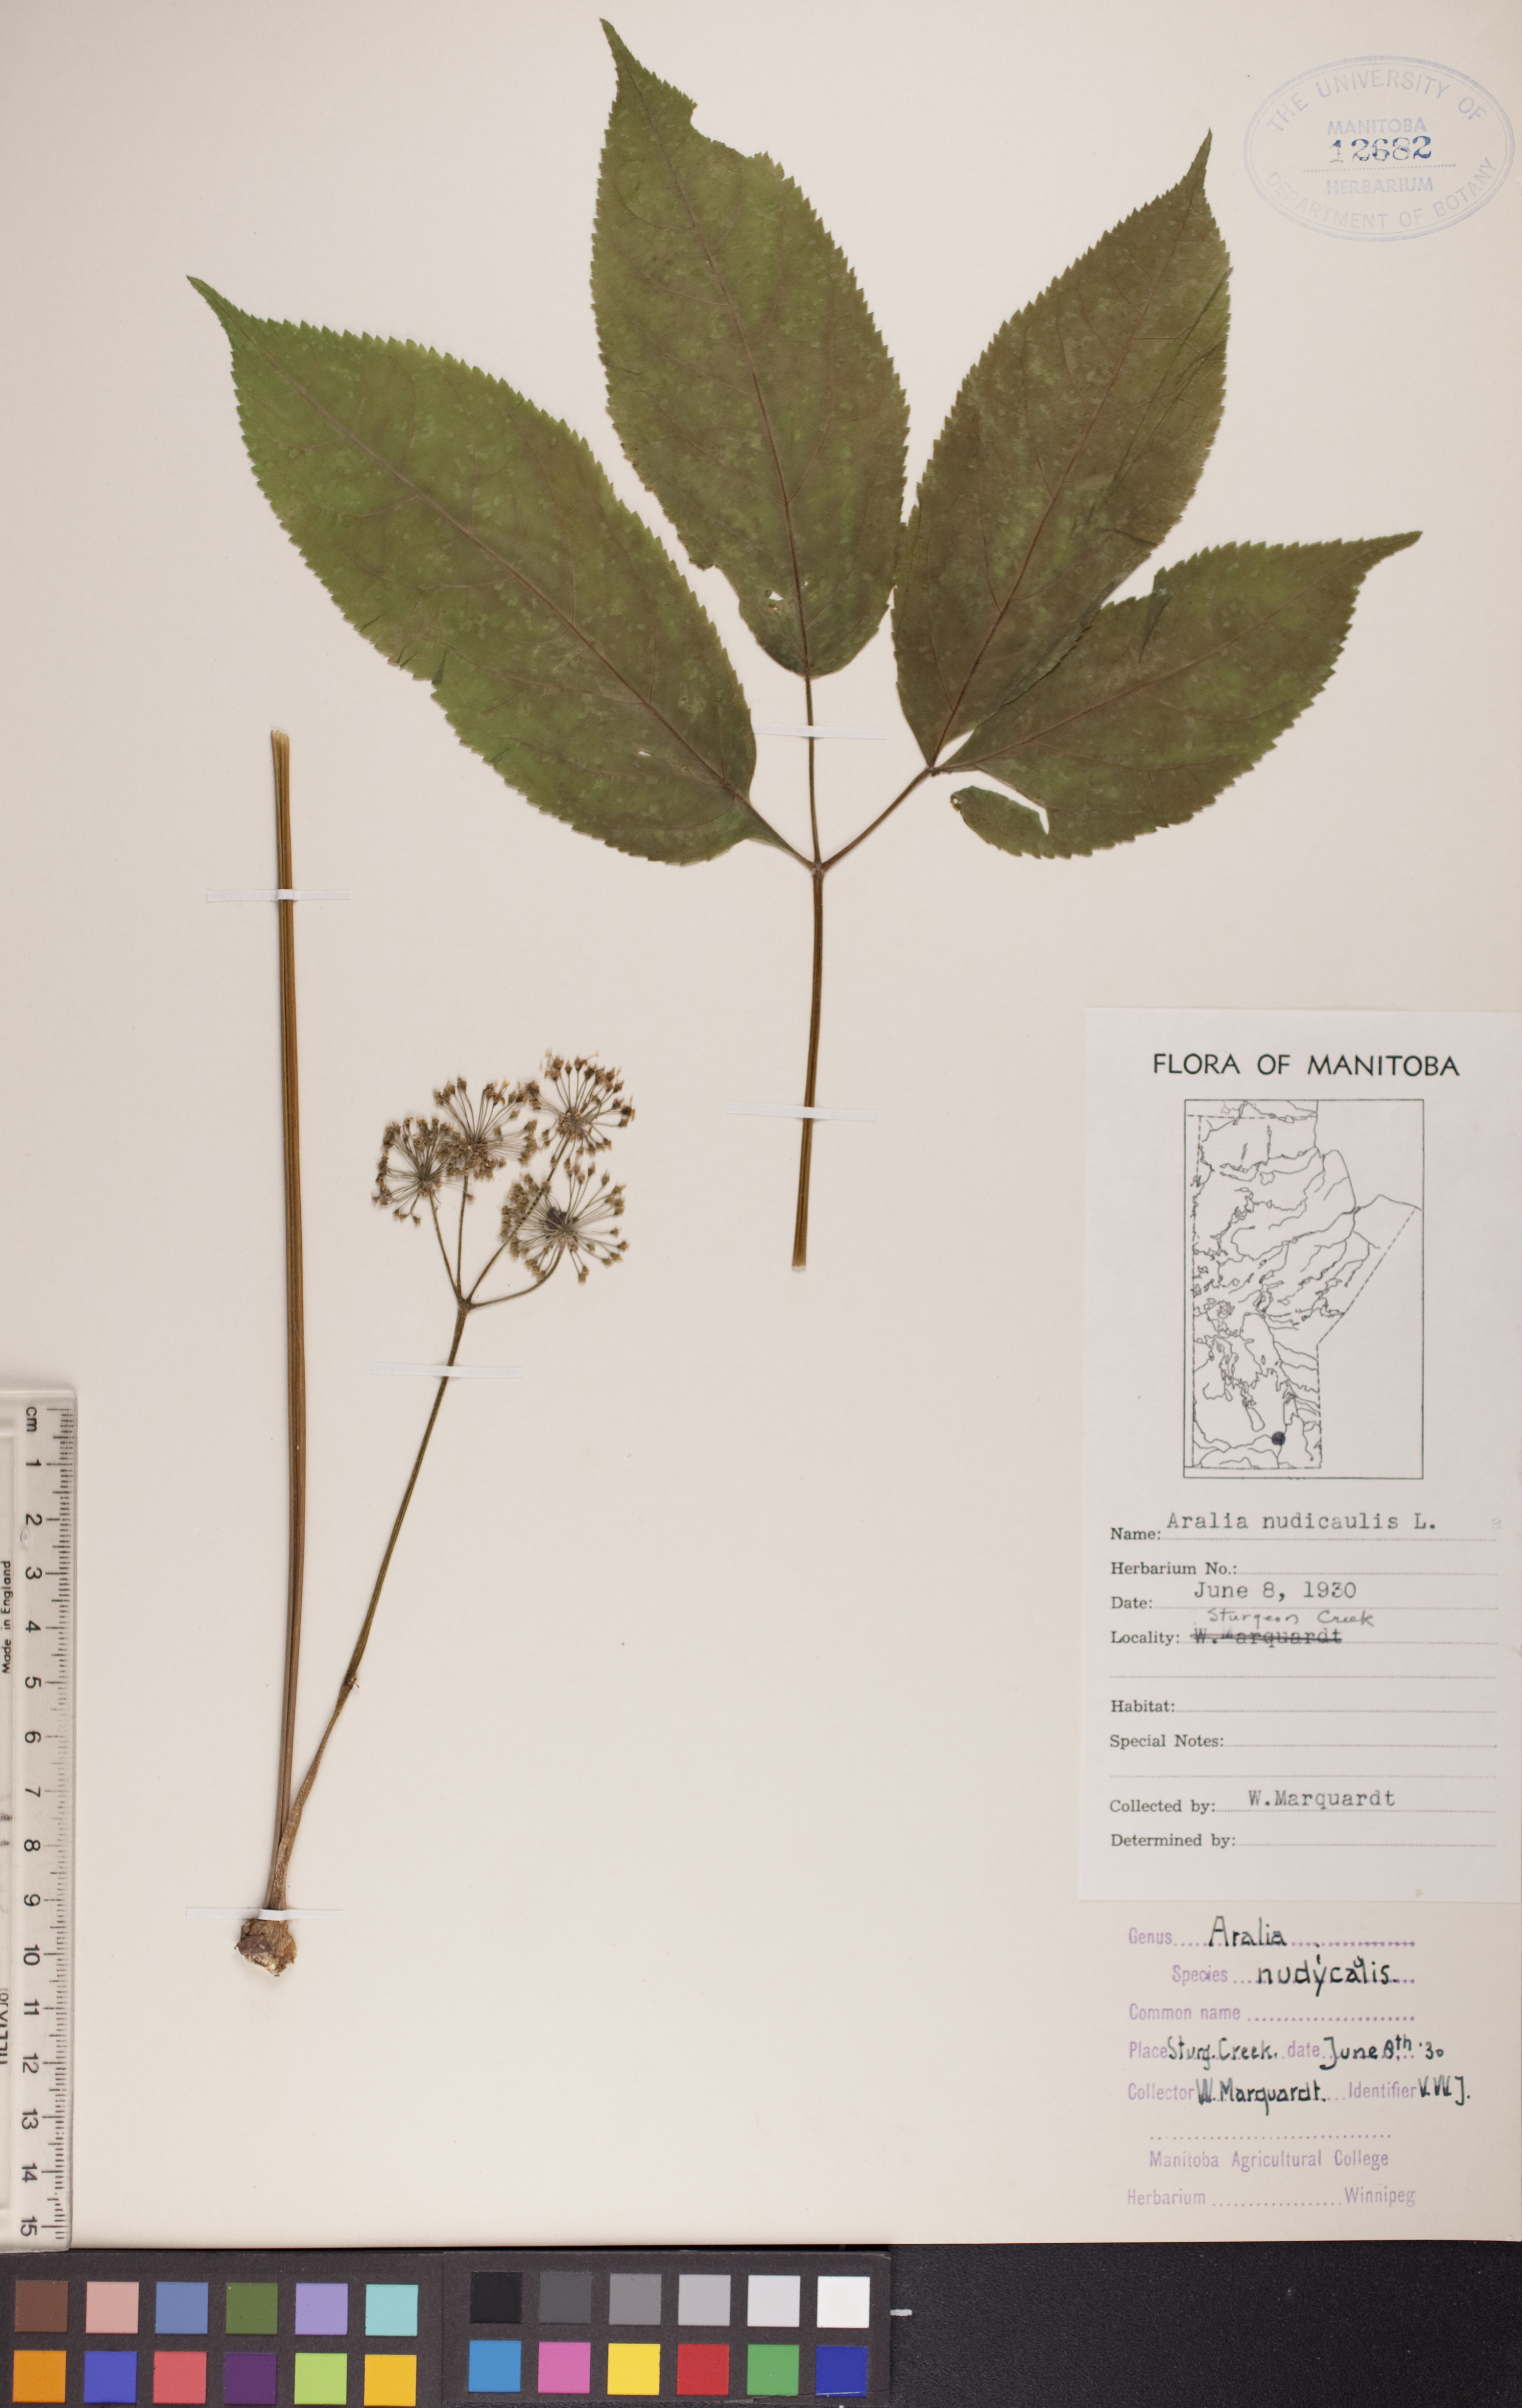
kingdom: Plantae
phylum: Tracheophyta
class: Magnoliopsida
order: Apiales
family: Araliaceae
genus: Aralia
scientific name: Aralia nudicaulis
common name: Wild sarsaparilla
